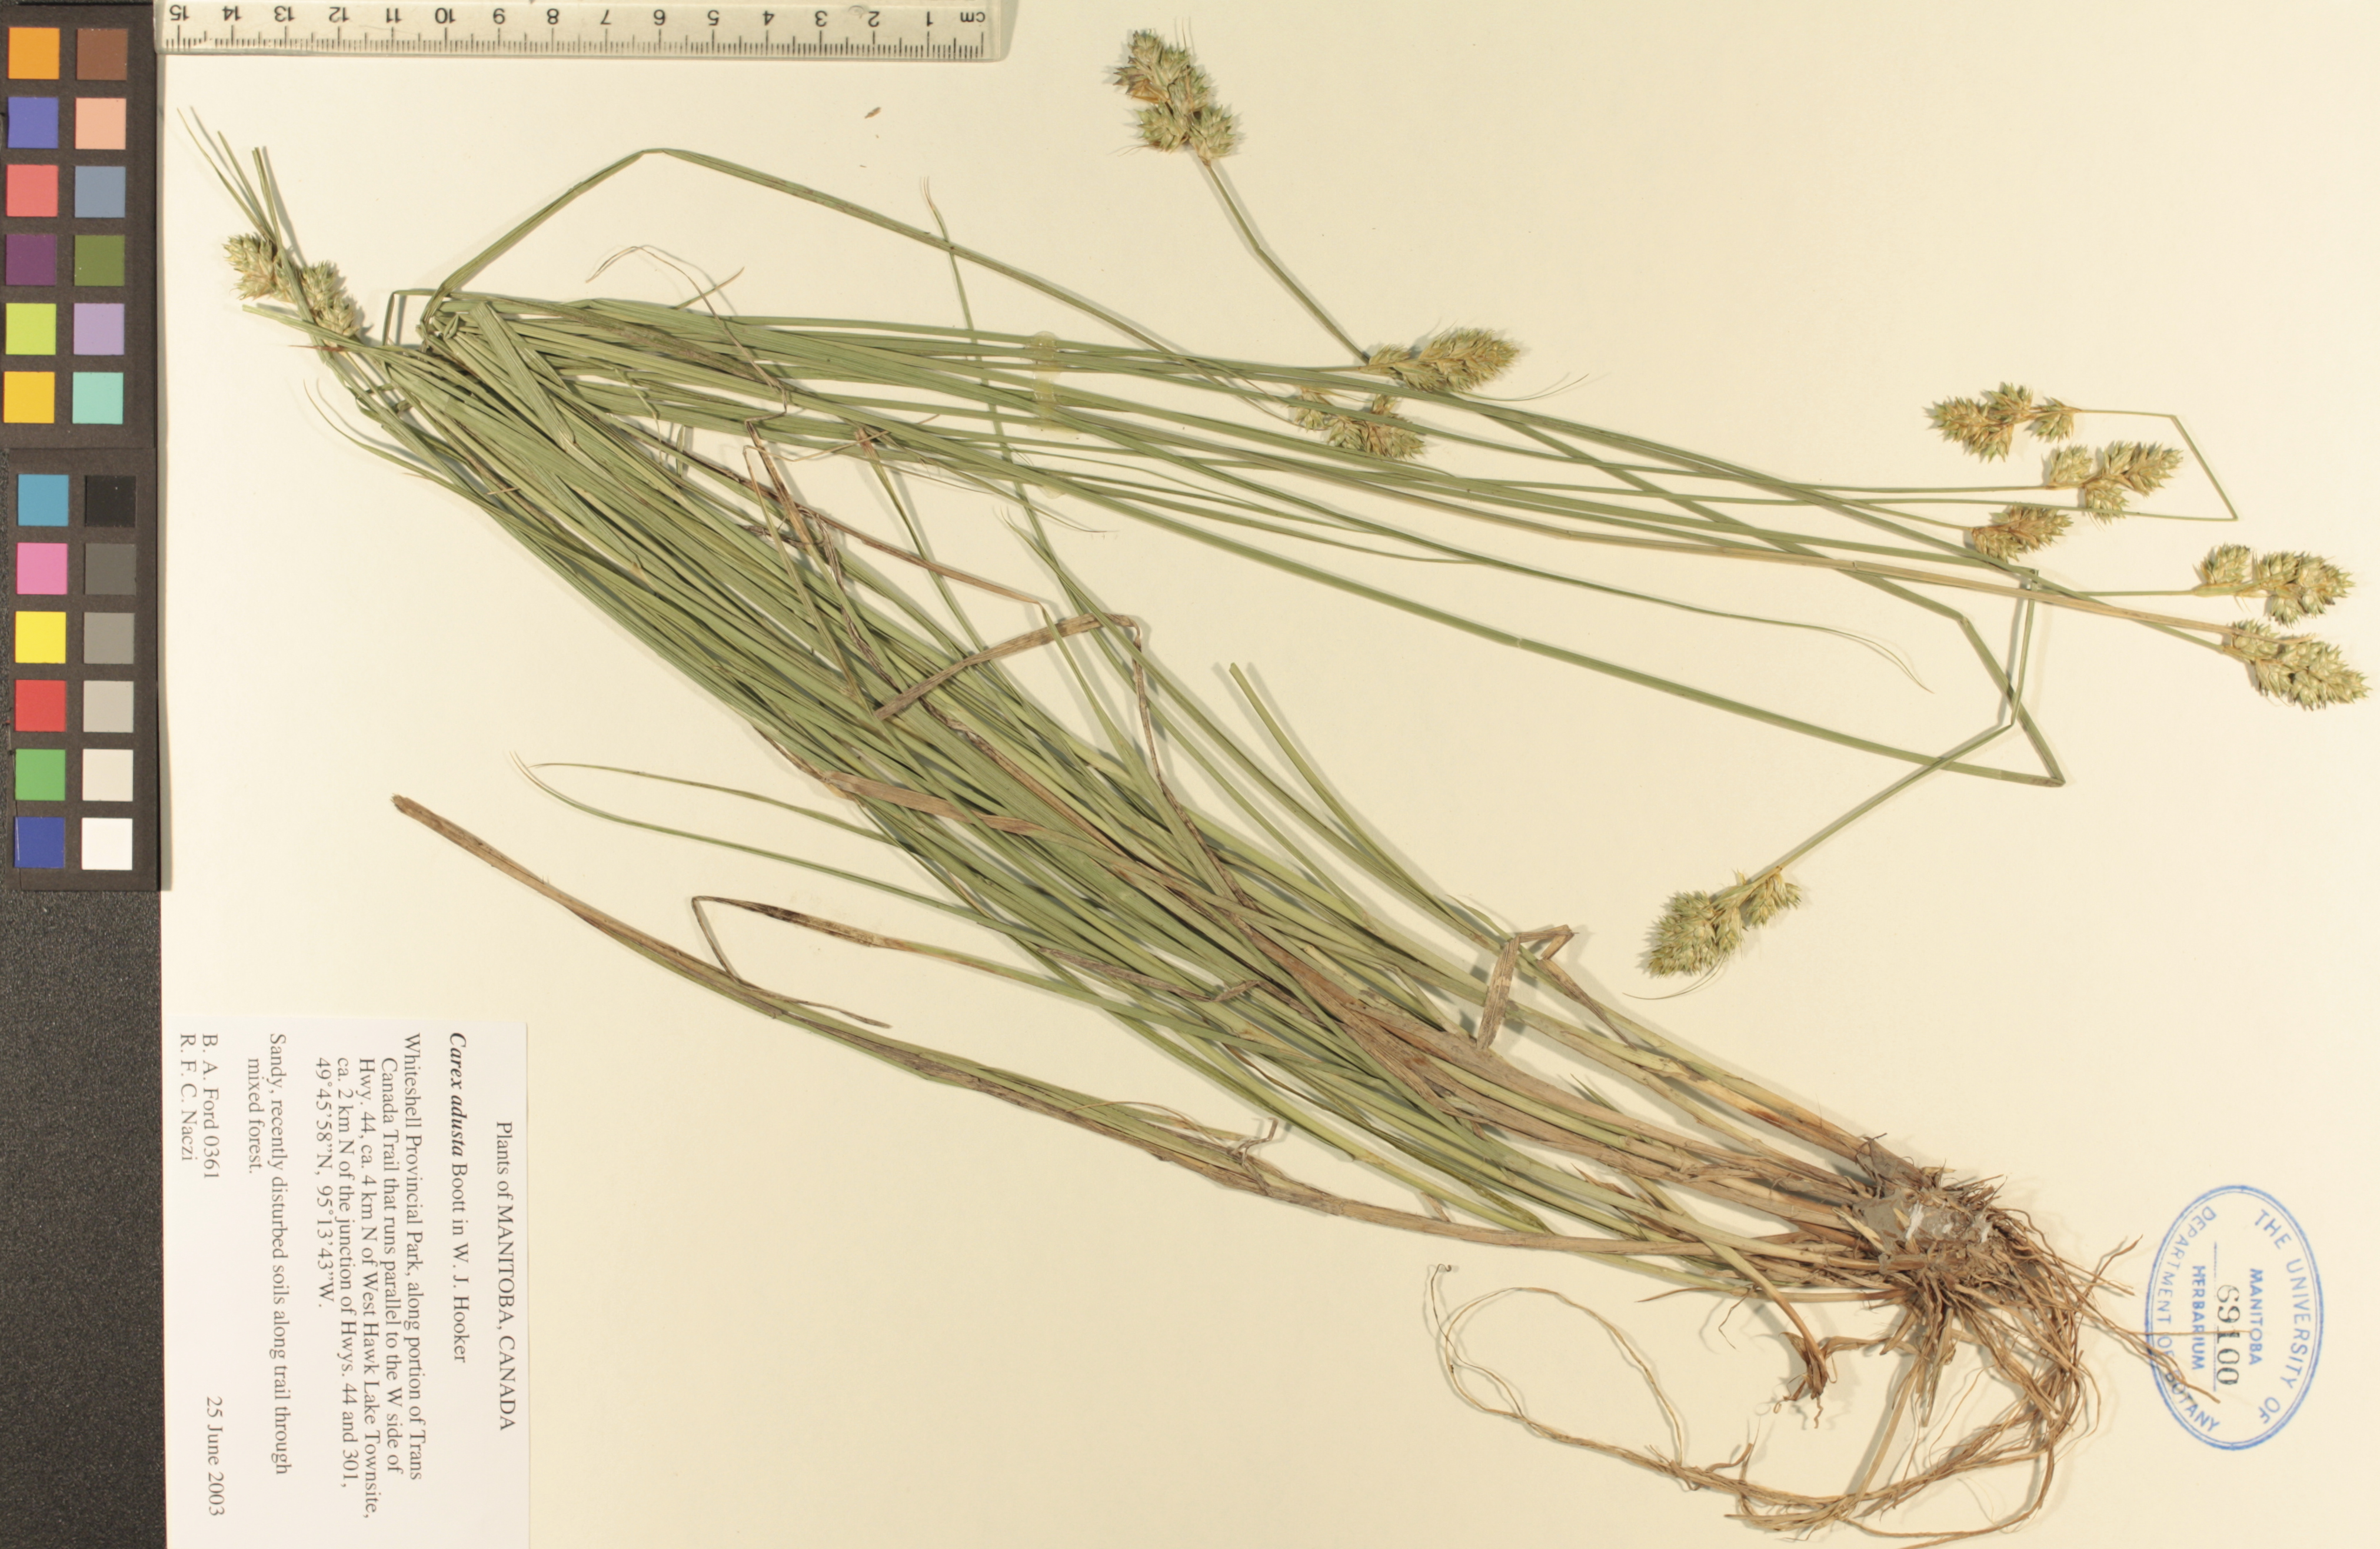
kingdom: Plantae
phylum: Tracheophyta
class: Liliopsida
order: Poales
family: Cyperaceae
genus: Carex
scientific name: Carex adusta
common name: Browned sedge
